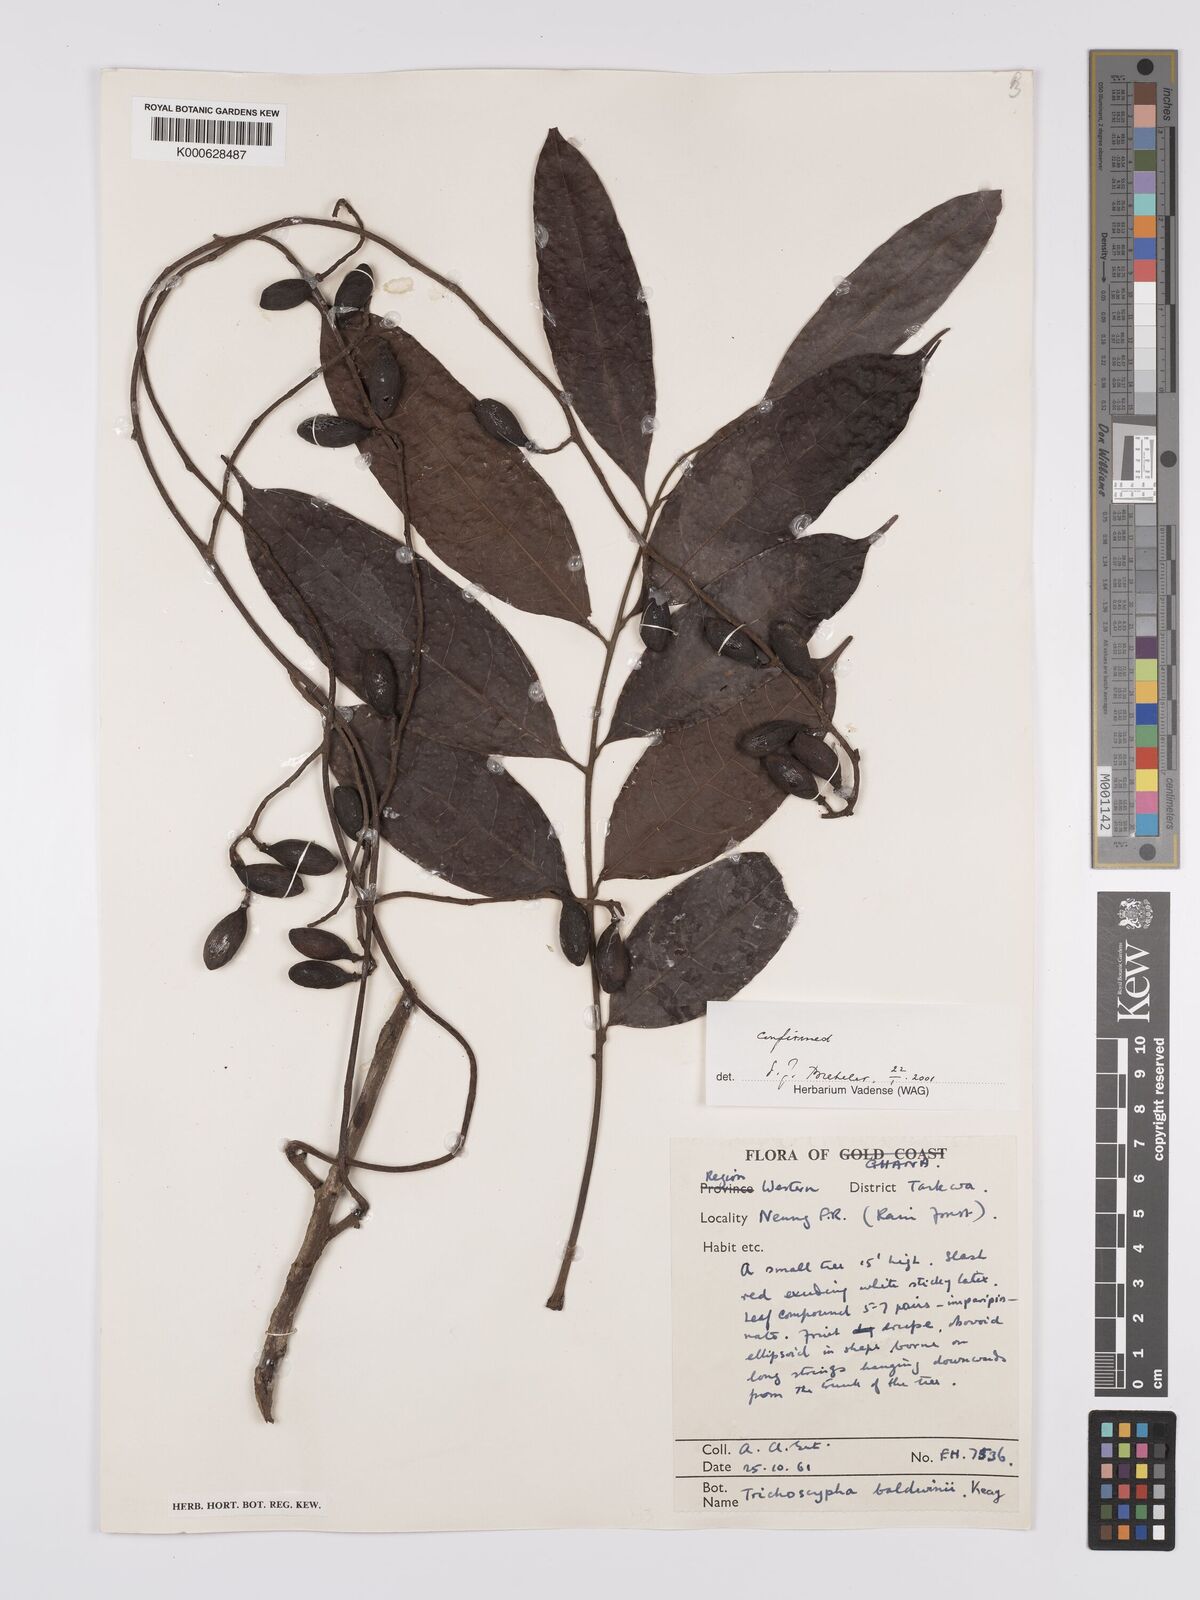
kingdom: Plantae
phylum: Tracheophyta
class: Magnoliopsida
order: Sapindales
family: Anacardiaceae
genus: Trichoscypha
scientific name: Trichoscypha baldwinii
